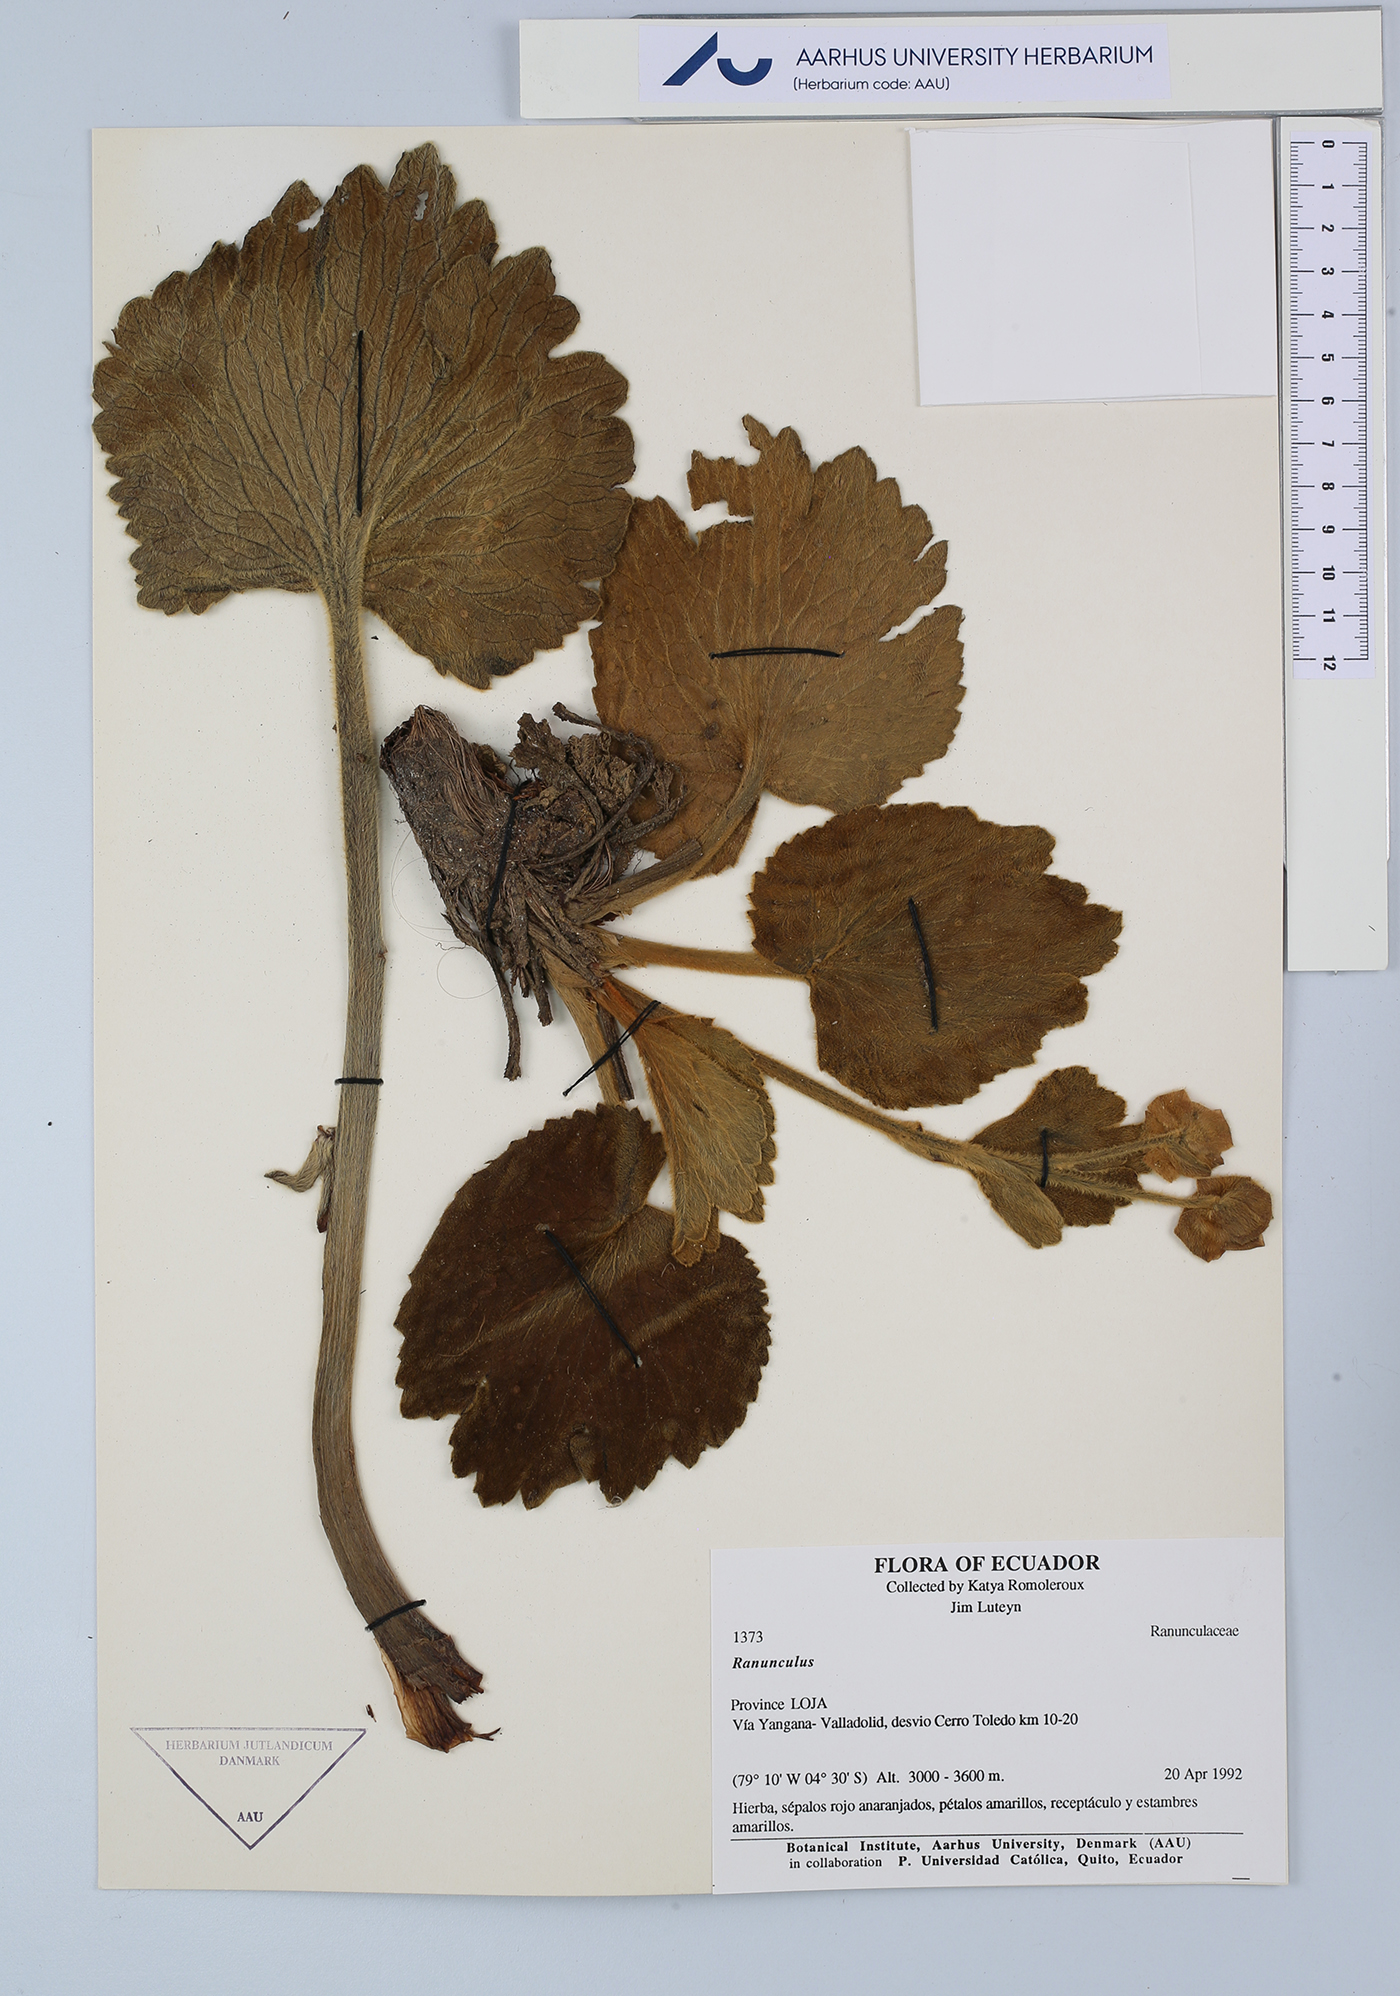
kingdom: Plantae
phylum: Tracheophyta
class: Magnoliopsida
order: Ranunculales
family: Ranunculaceae
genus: Ranunculus
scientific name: Ranunculus
